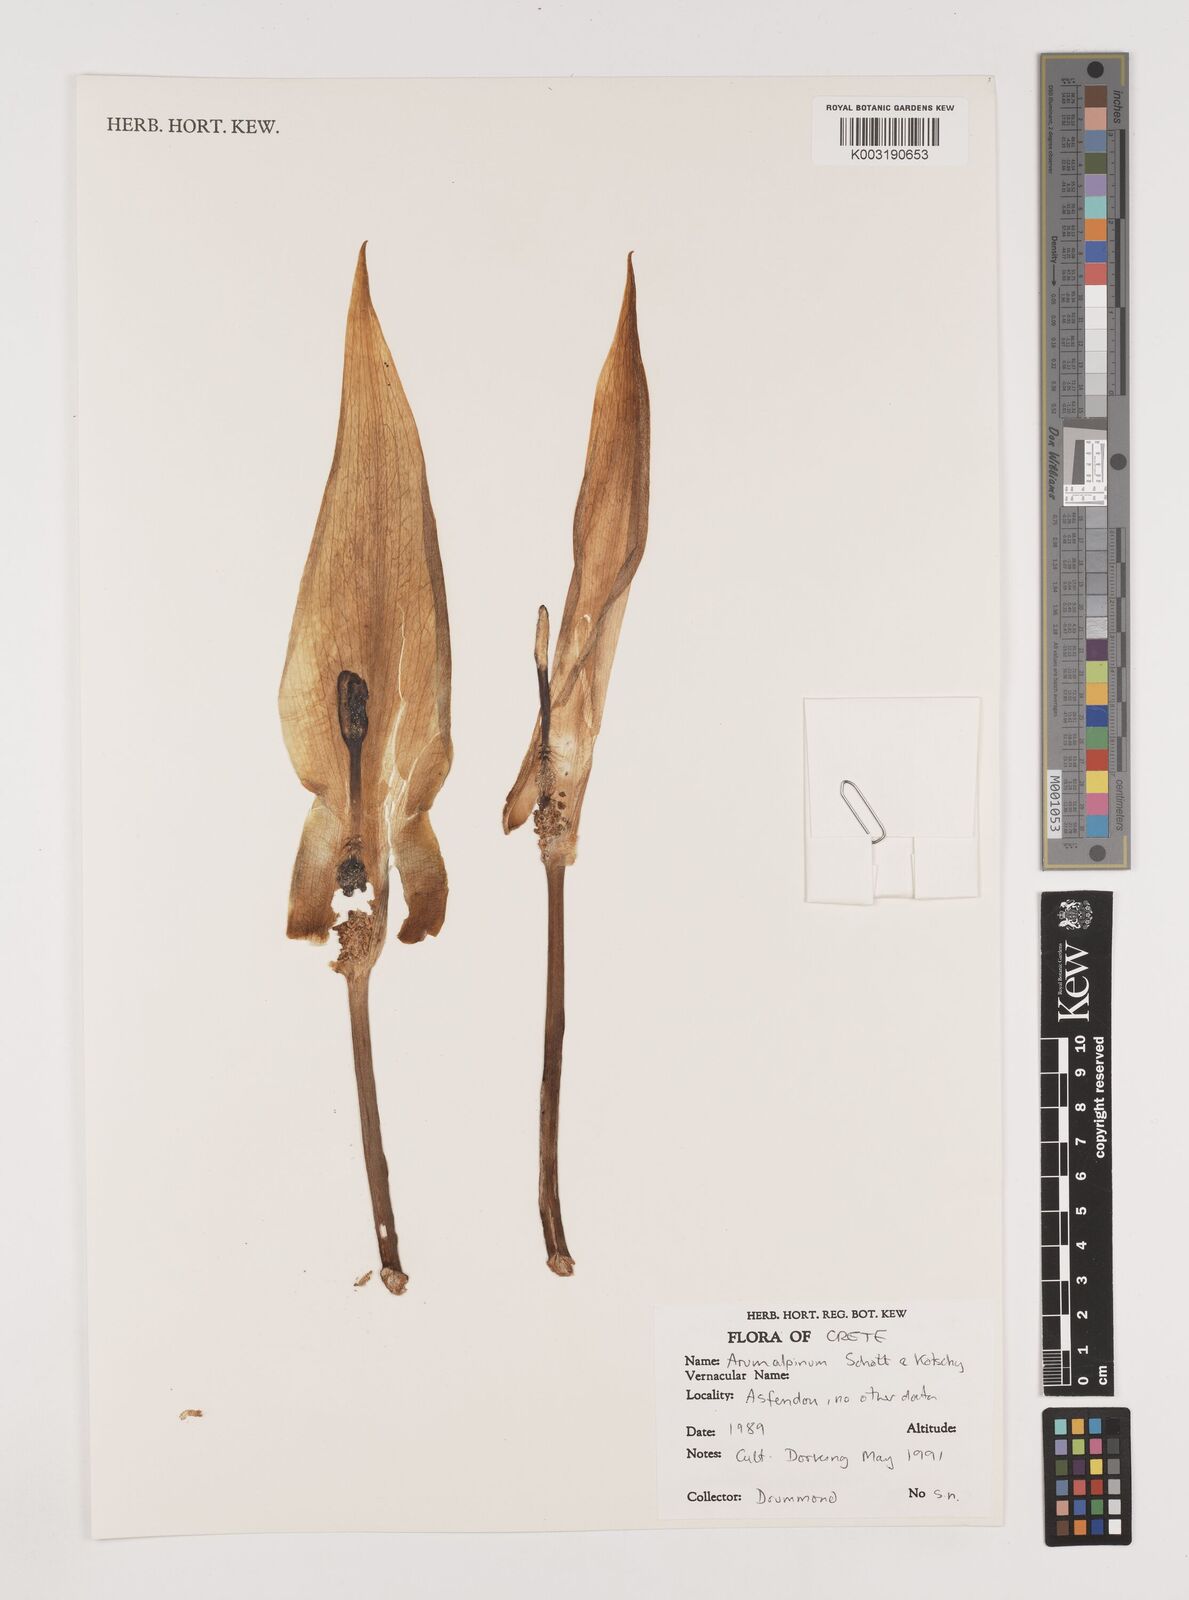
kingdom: Plantae
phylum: Tracheophyta
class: Liliopsida
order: Alismatales
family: Araceae
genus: Arum
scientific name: Arum cylindraceum
